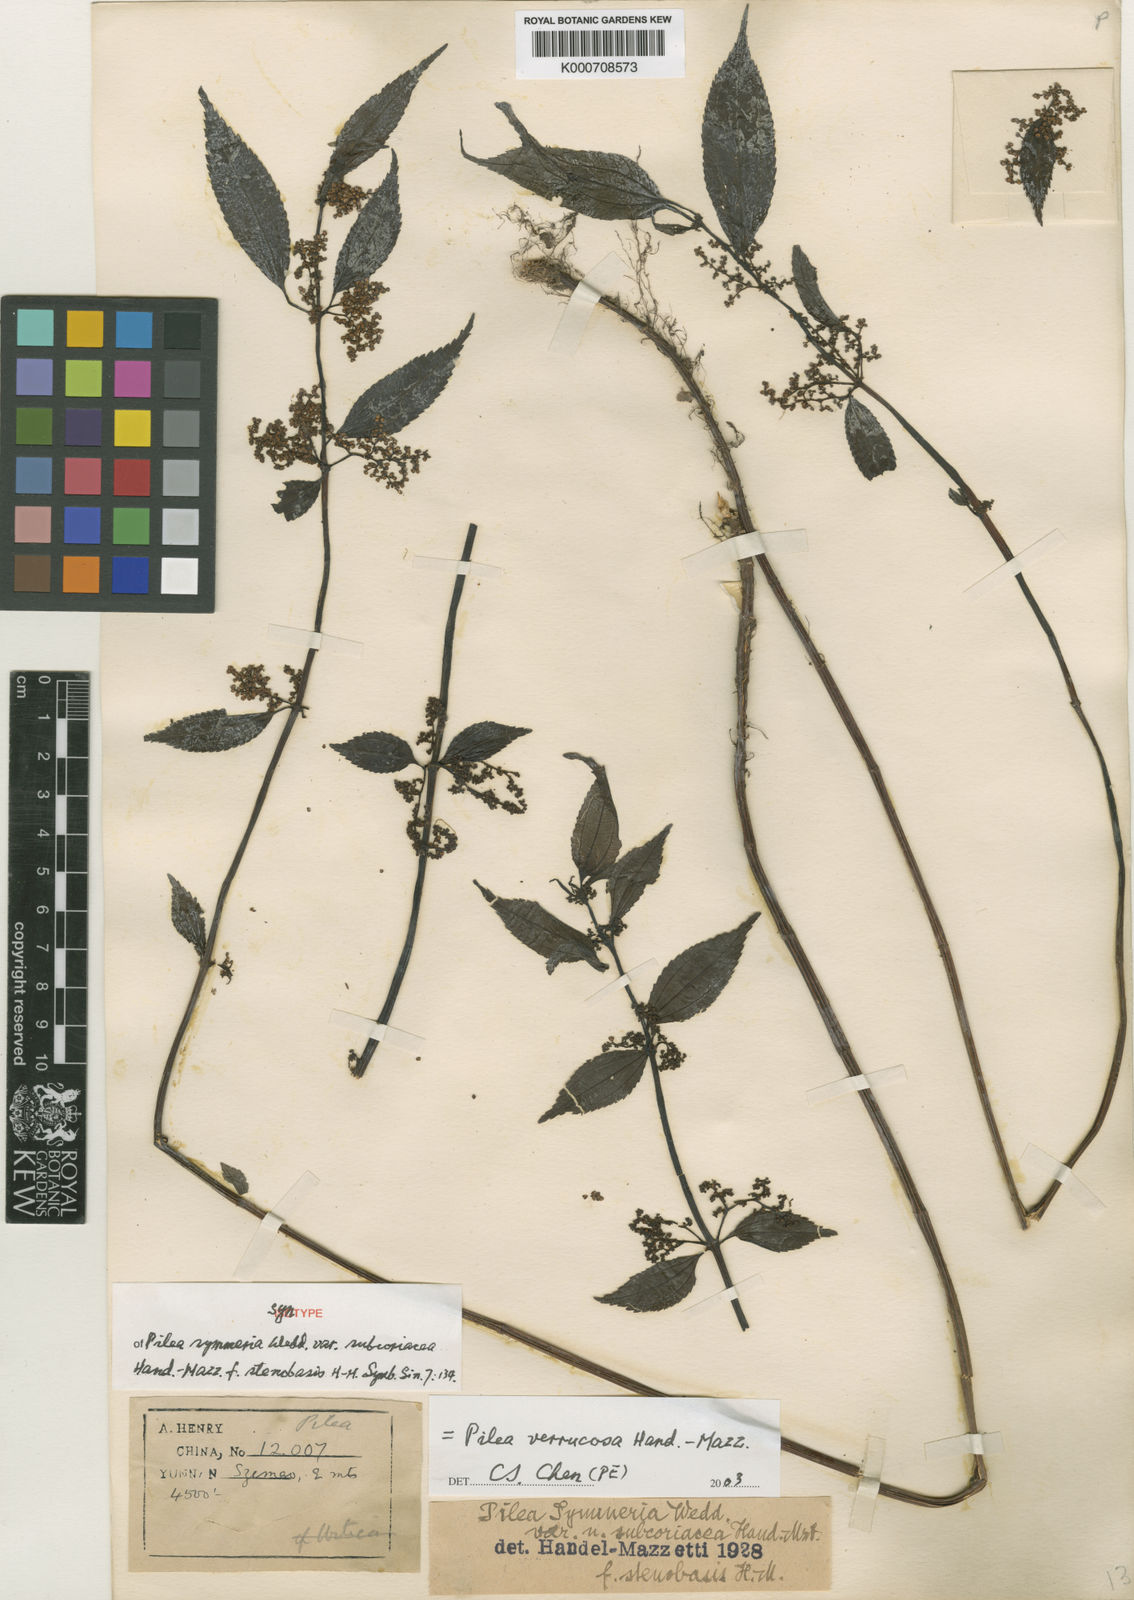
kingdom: Plantae
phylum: Tracheophyta
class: Magnoliopsida
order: Rosales
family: Urticaceae
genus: Pilea
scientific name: Pilea gracilis
